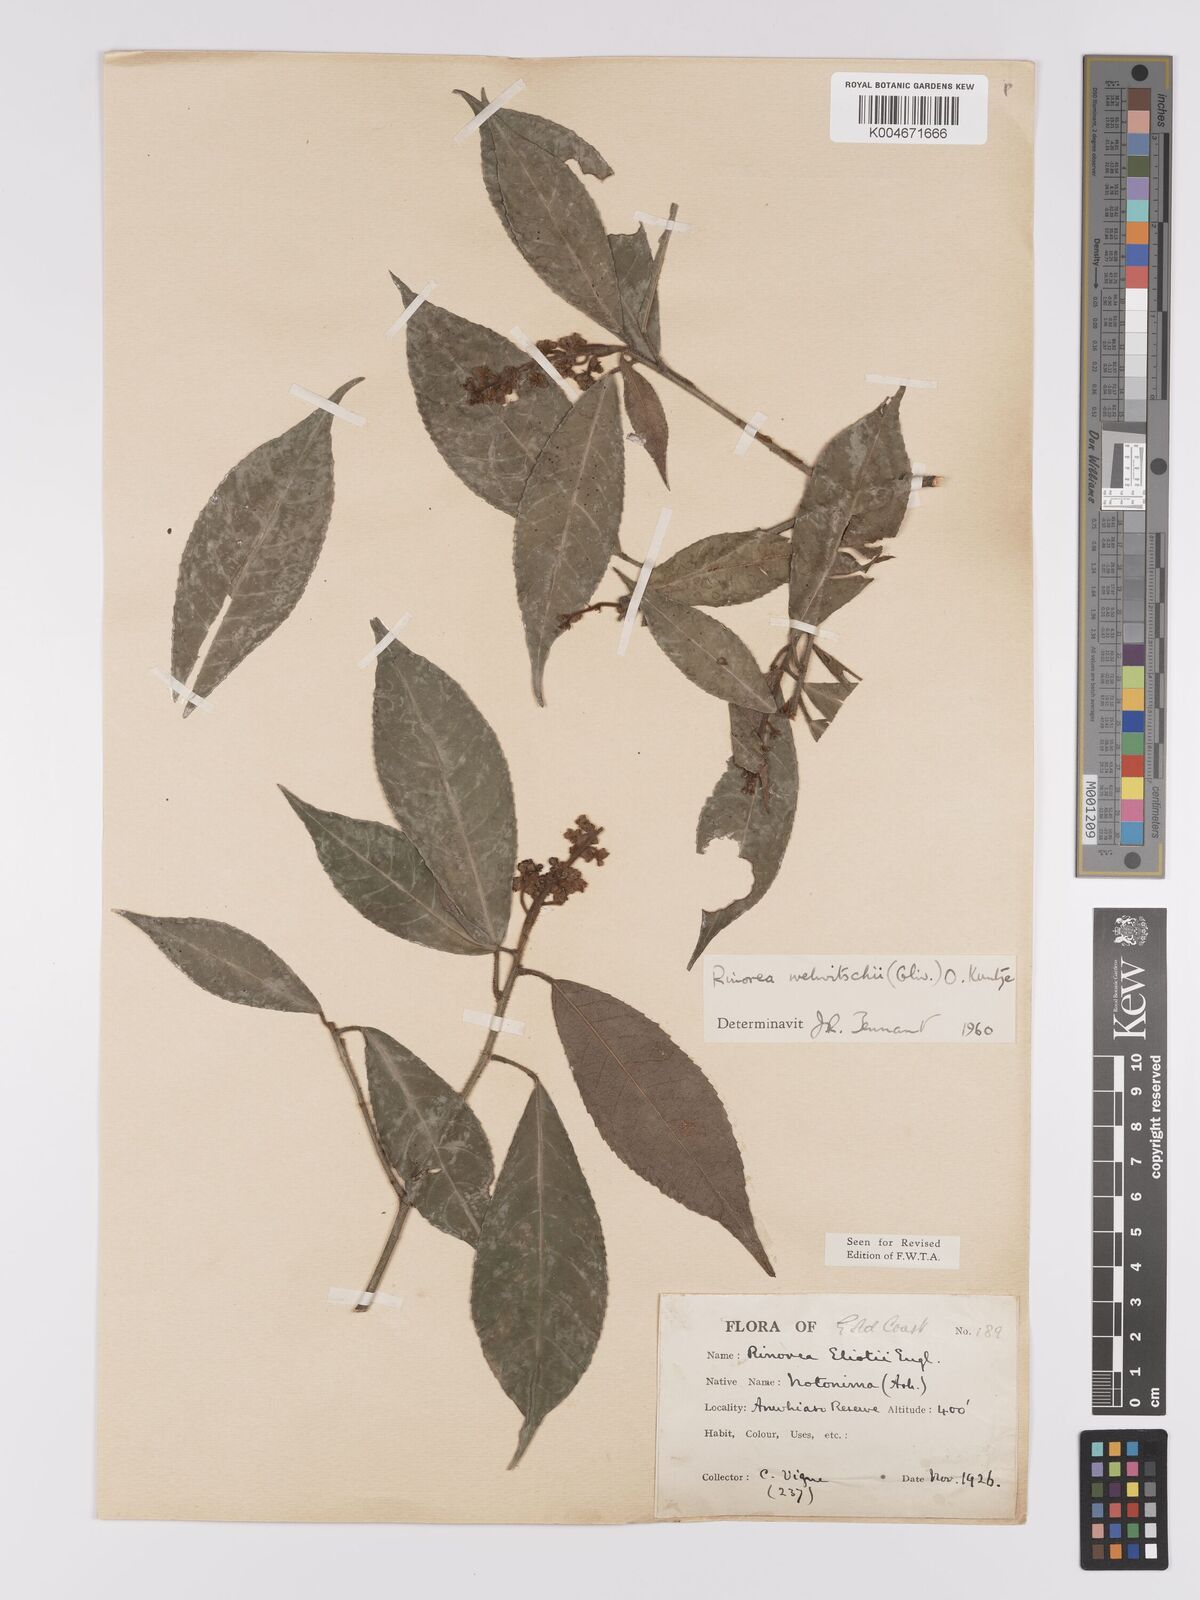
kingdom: Plantae
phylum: Tracheophyta
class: Magnoliopsida
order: Malpighiales
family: Violaceae
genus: Rinorea
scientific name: Rinorea welwitschii
